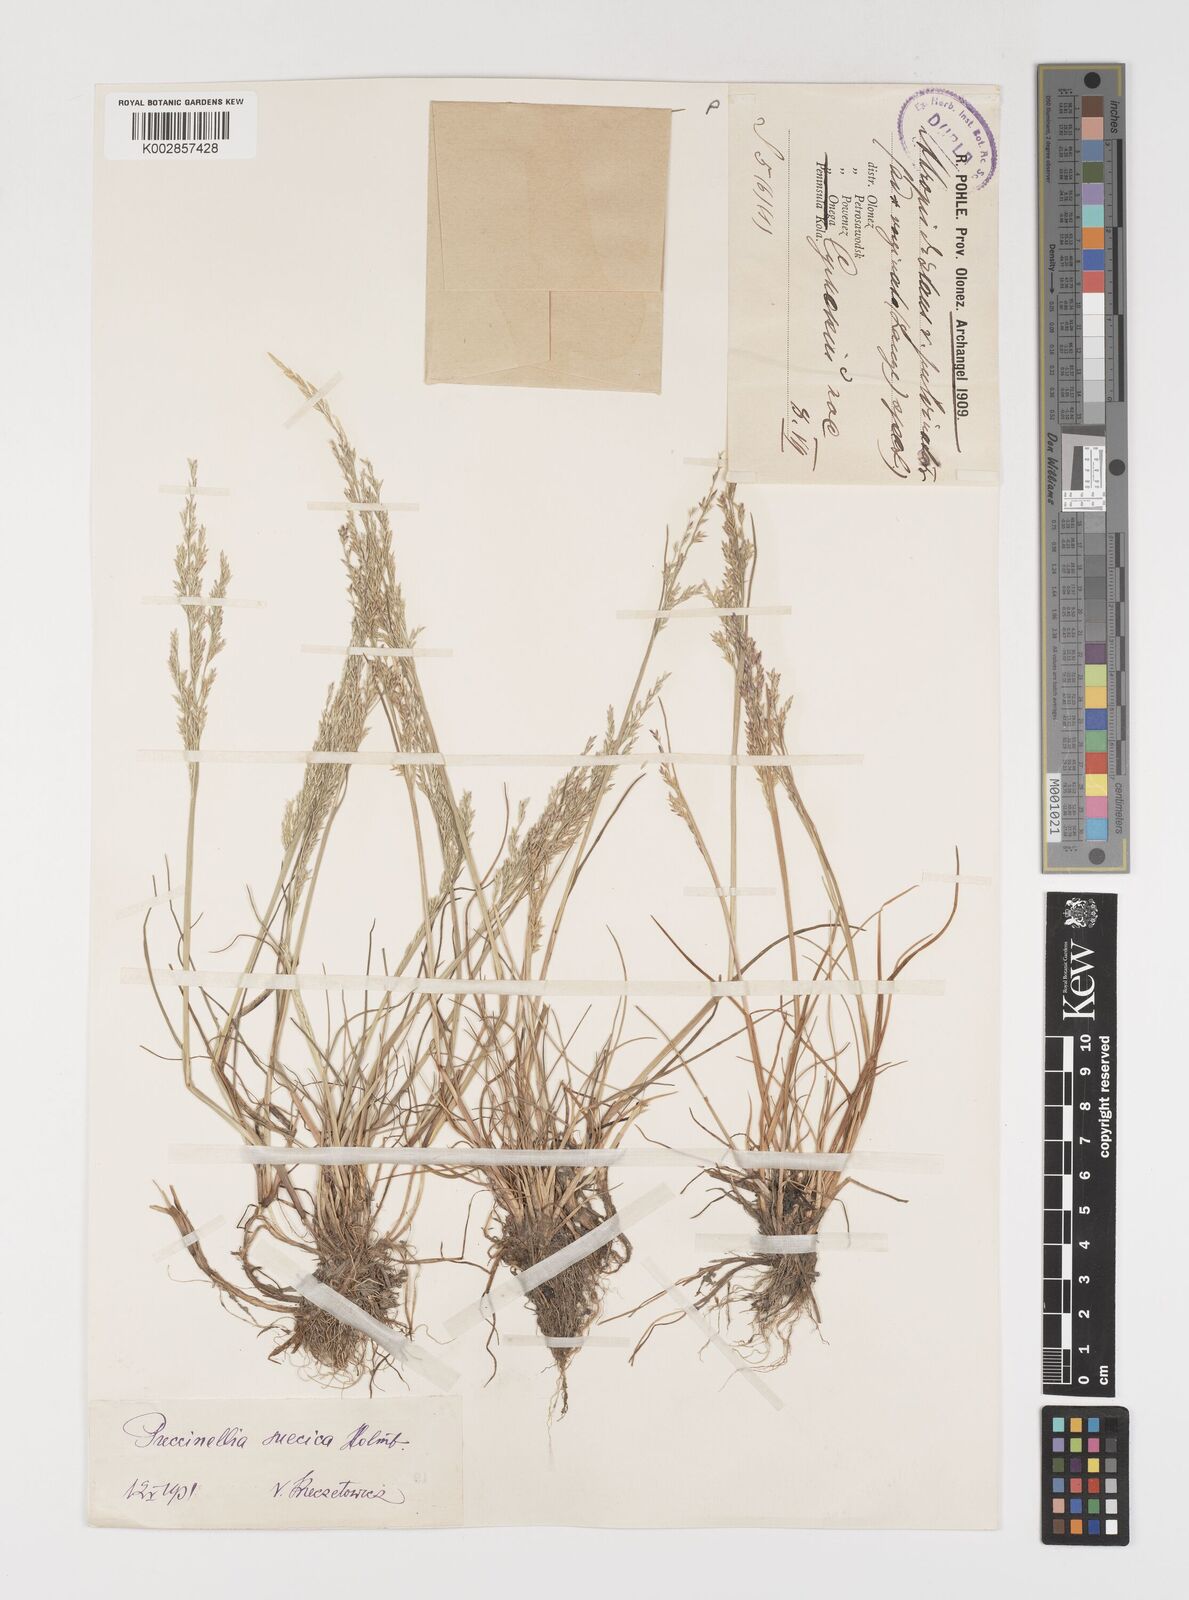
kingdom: Plantae
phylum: Tracheophyta
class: Liliopsida
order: Poales
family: Poaceae
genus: Puccinellia
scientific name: Puccinellia distans
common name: Weeping alkaligrass
